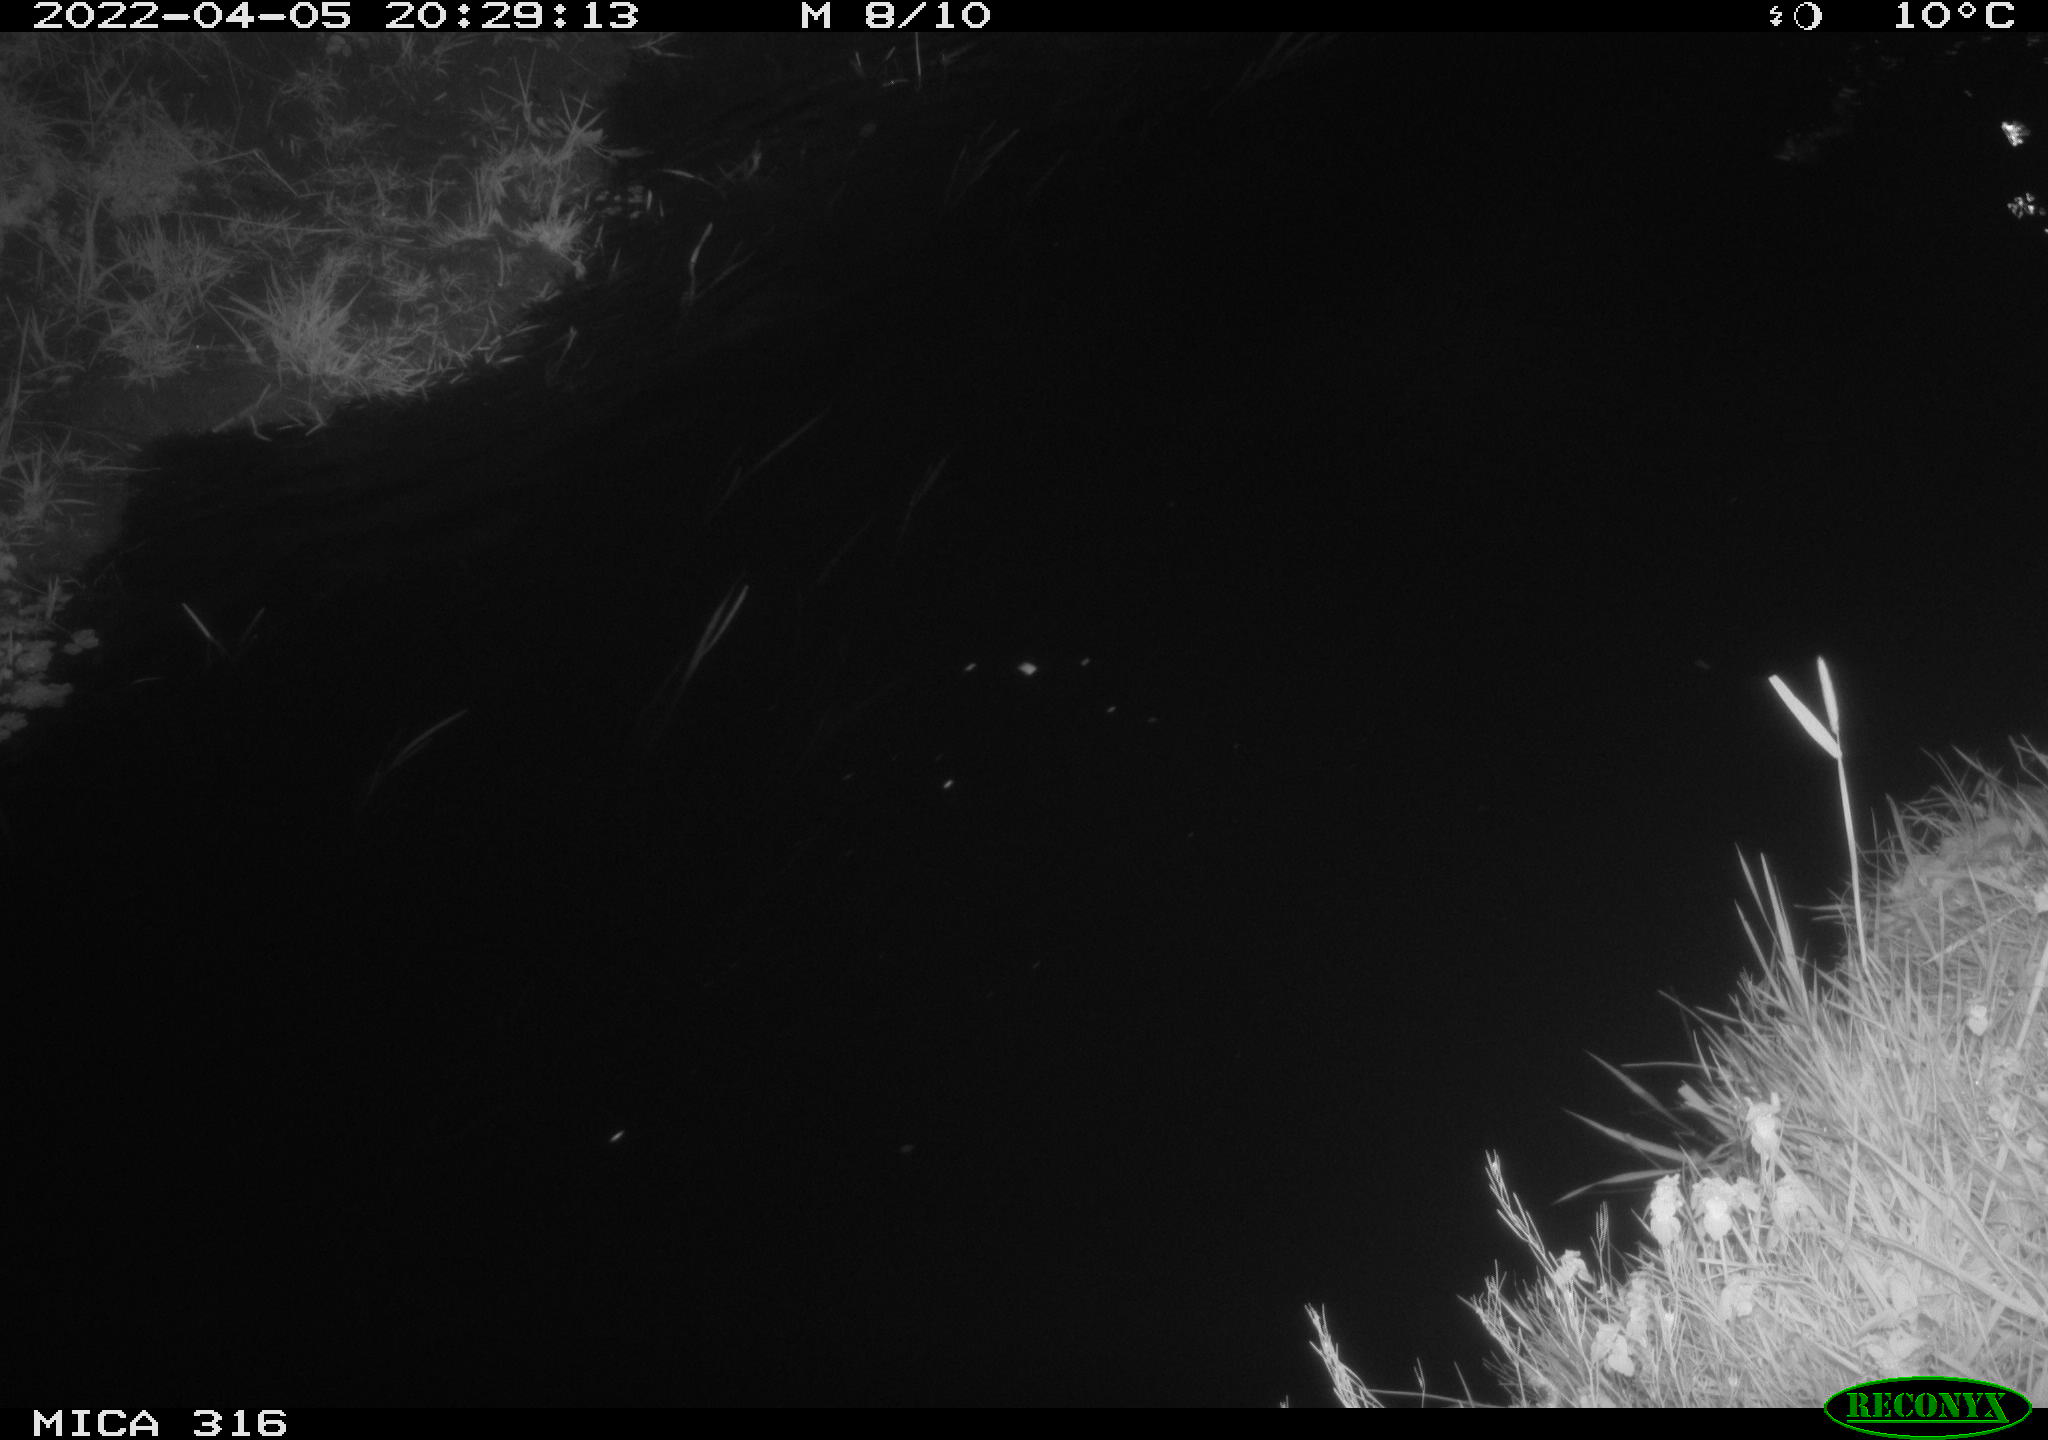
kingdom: Animalia
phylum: Chordata
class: Aves
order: Anseriformes
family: Anatidae
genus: Anas
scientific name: Anas platyrhynchos
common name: Mallard
